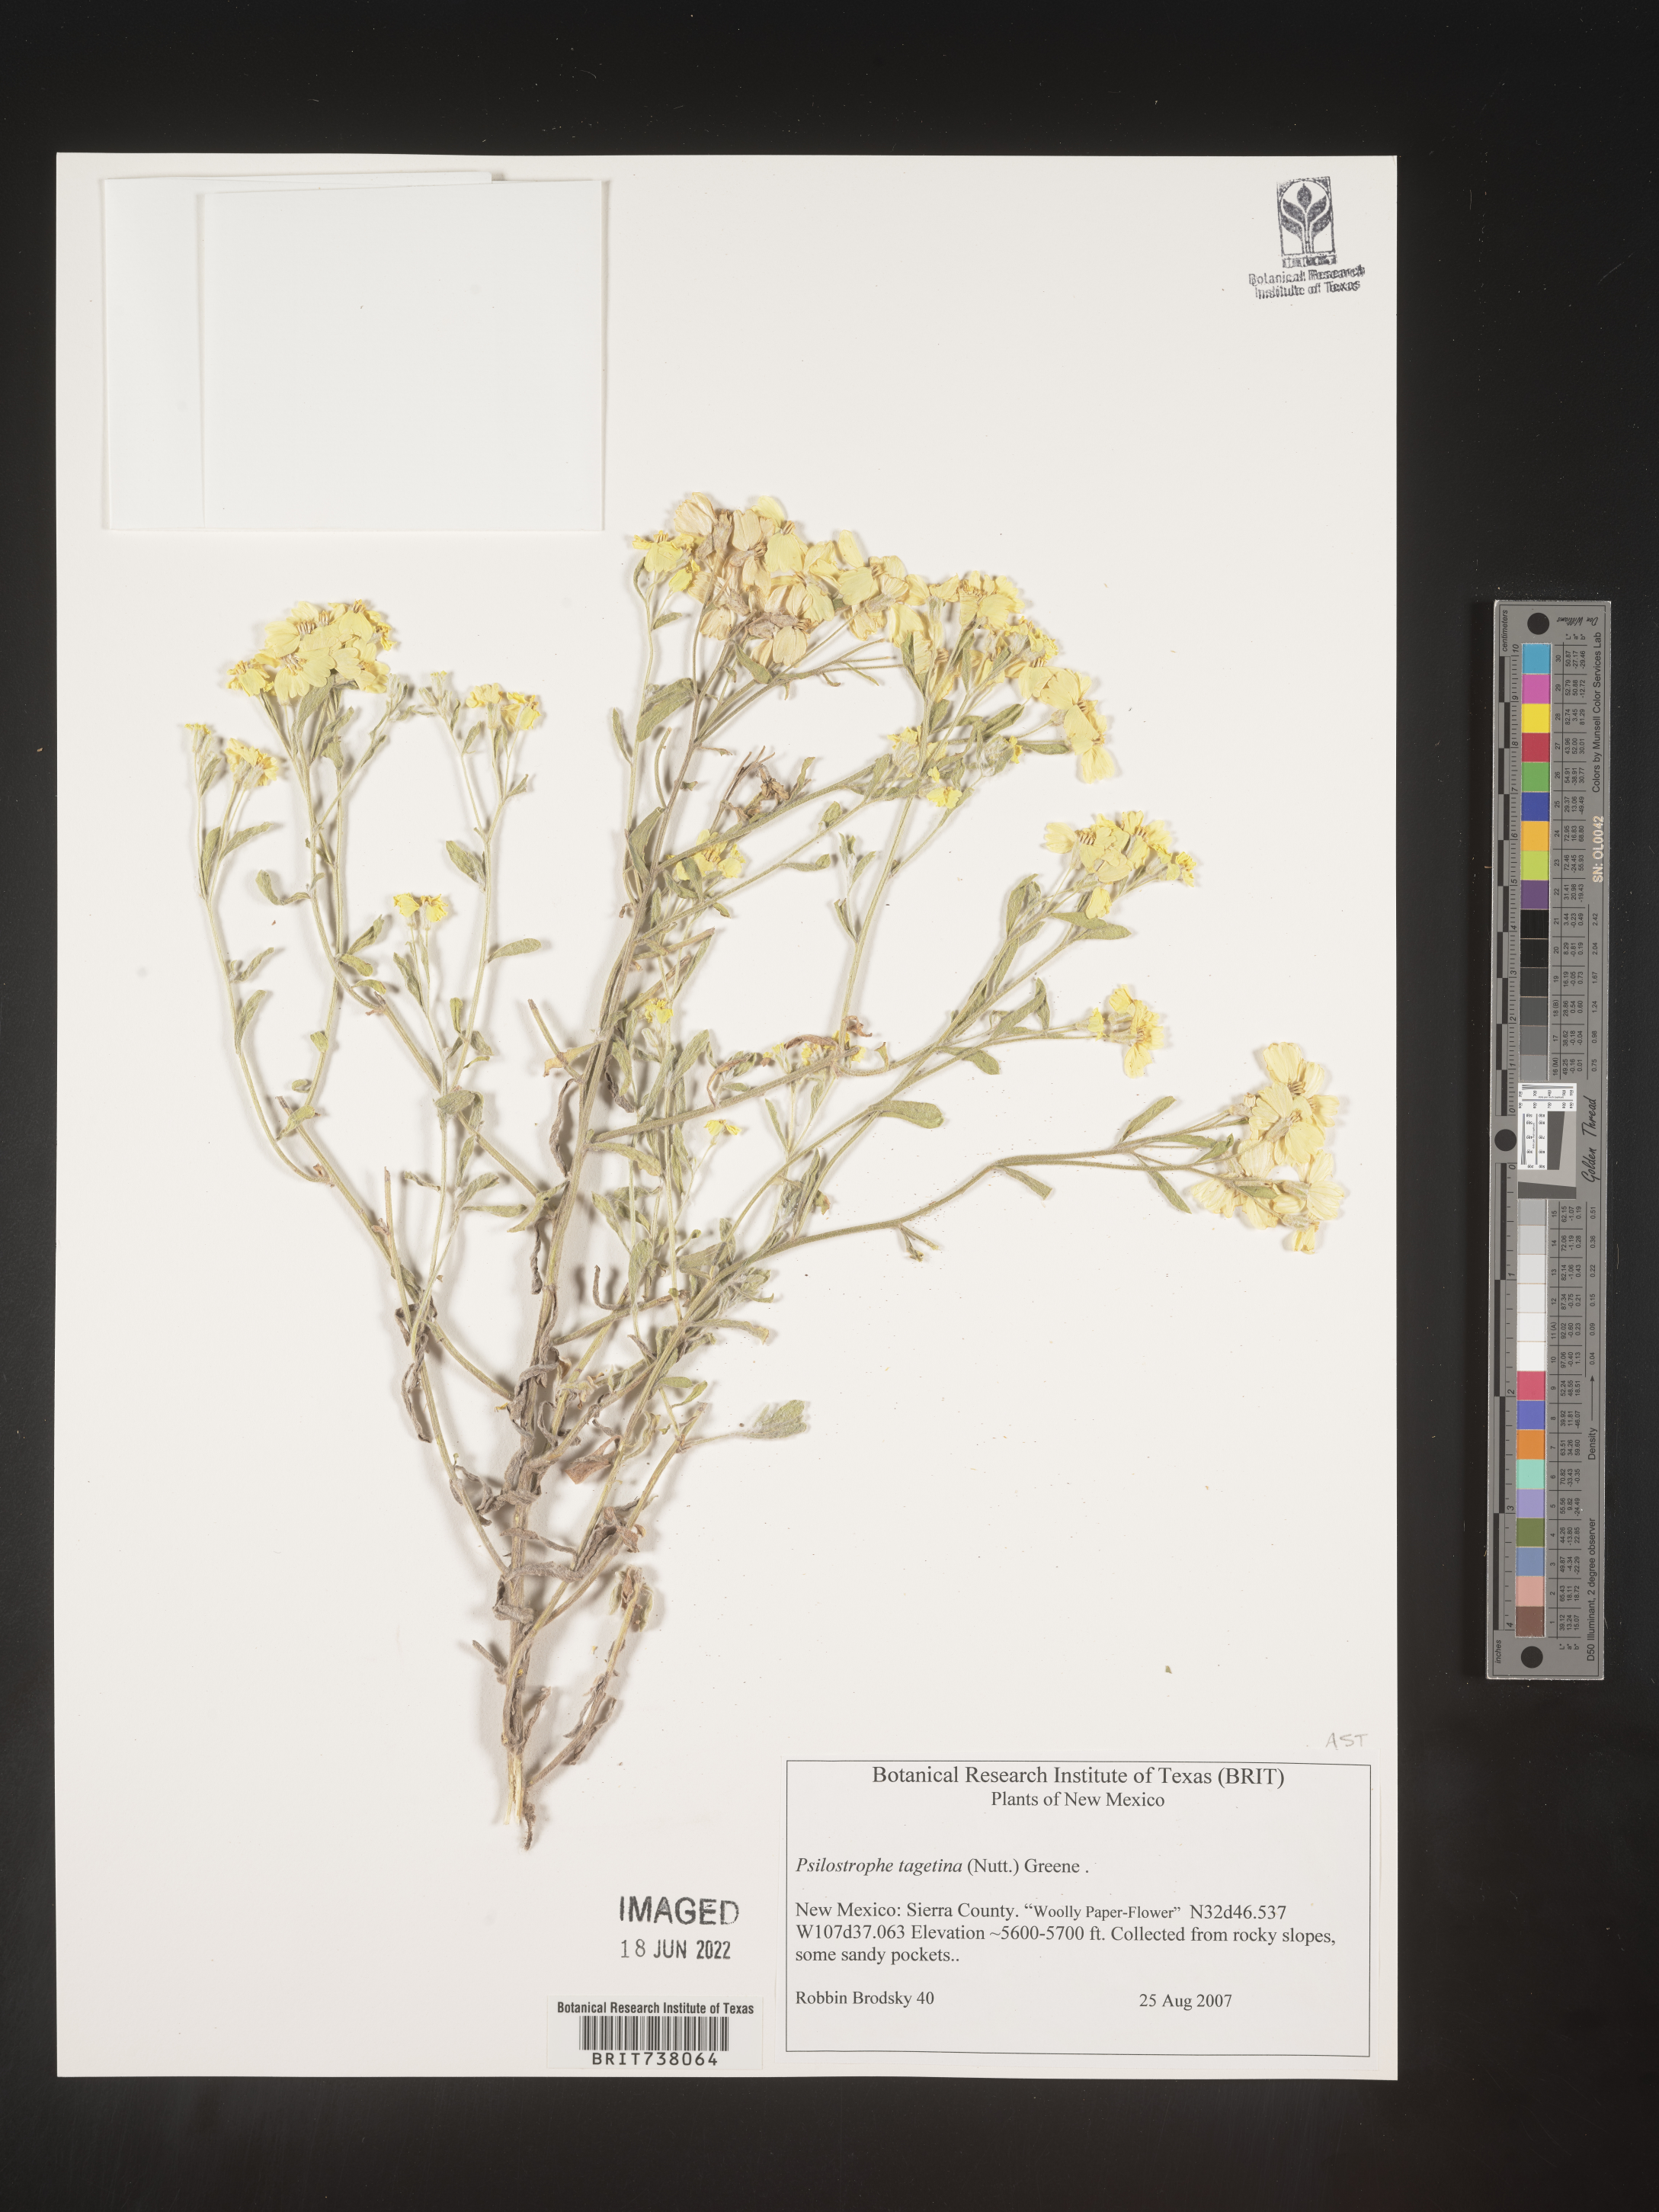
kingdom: Plantae
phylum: Tracheophyta
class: Magnoliopsida
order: Asterales
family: Asteraceae
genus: Psilostrophe
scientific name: Psilostrophe tagetina
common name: Marigold paper-flower
